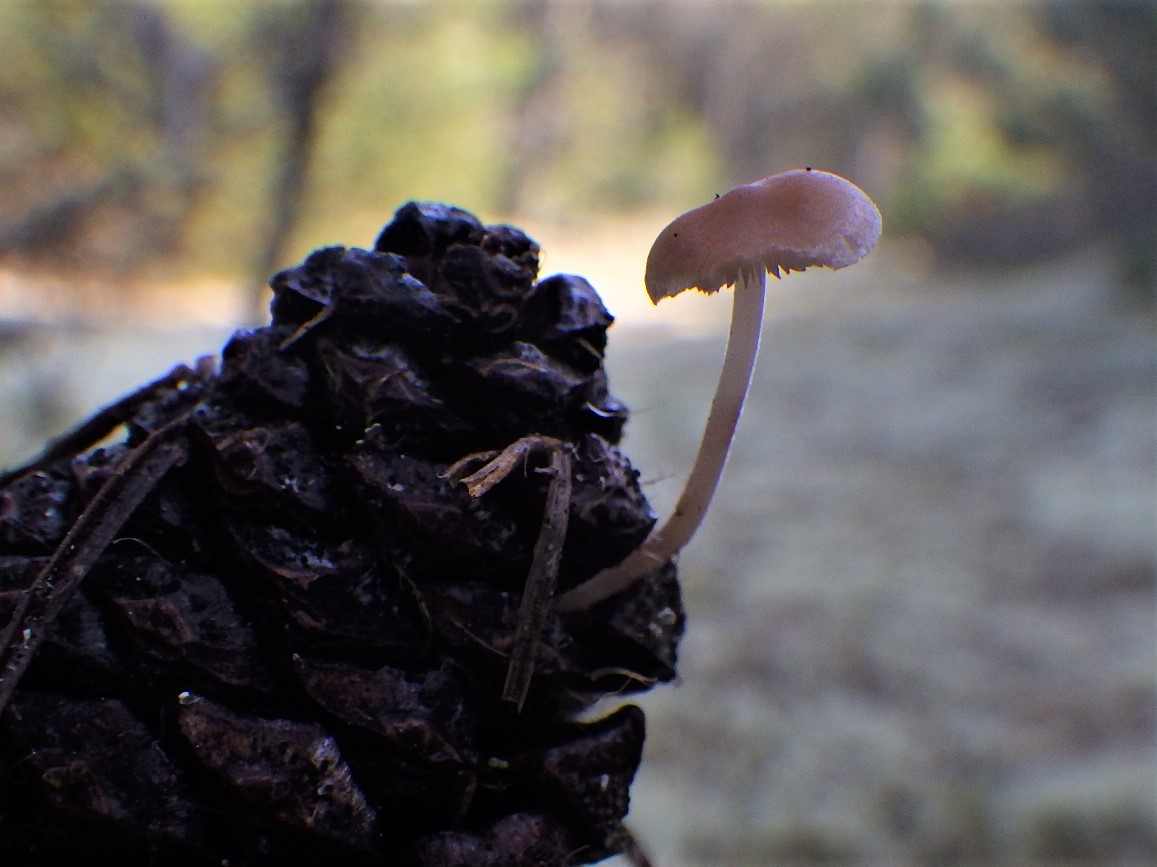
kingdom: Fungi
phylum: Basidiomycota
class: Agaricomycetes
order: Agaricales
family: Marasmiaceae
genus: Baeospora
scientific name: Baeospora myosura
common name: koglebruskhat
